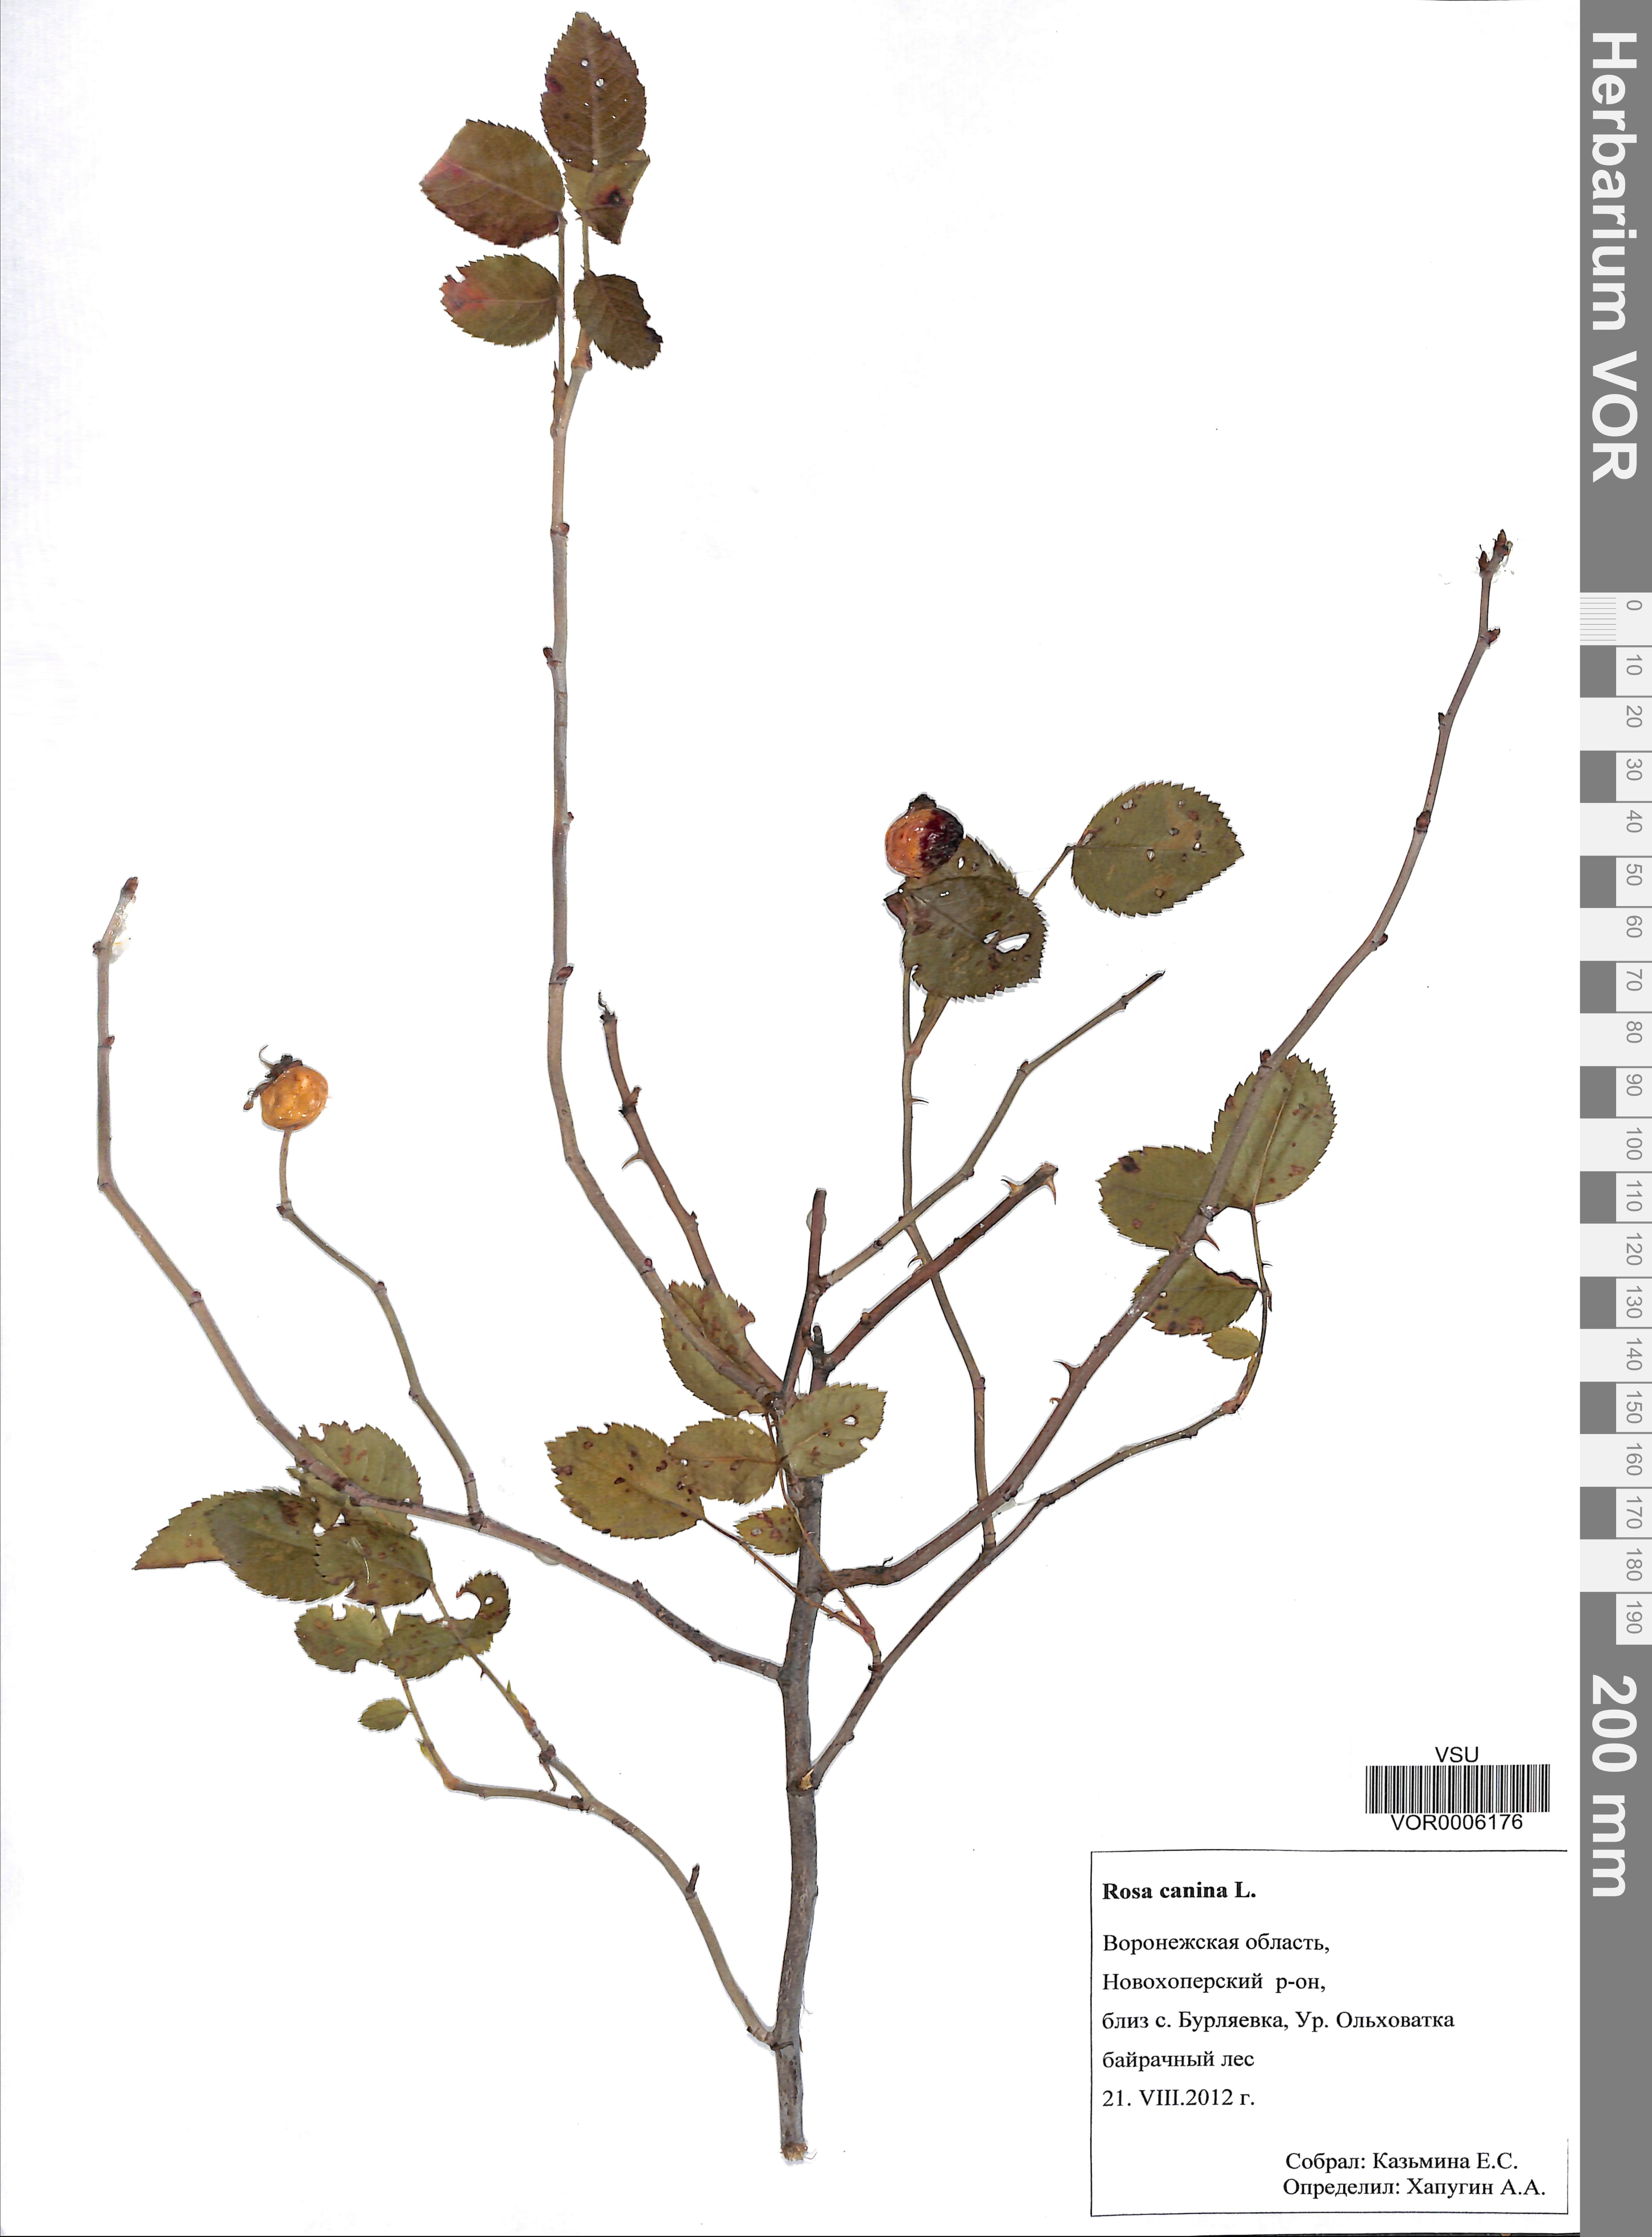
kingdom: Plantae
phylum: Tracheophyta
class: Magnoliopsida
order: Rosales
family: Rosaceae
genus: Rosa
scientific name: Rosa canina
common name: Dog rose
